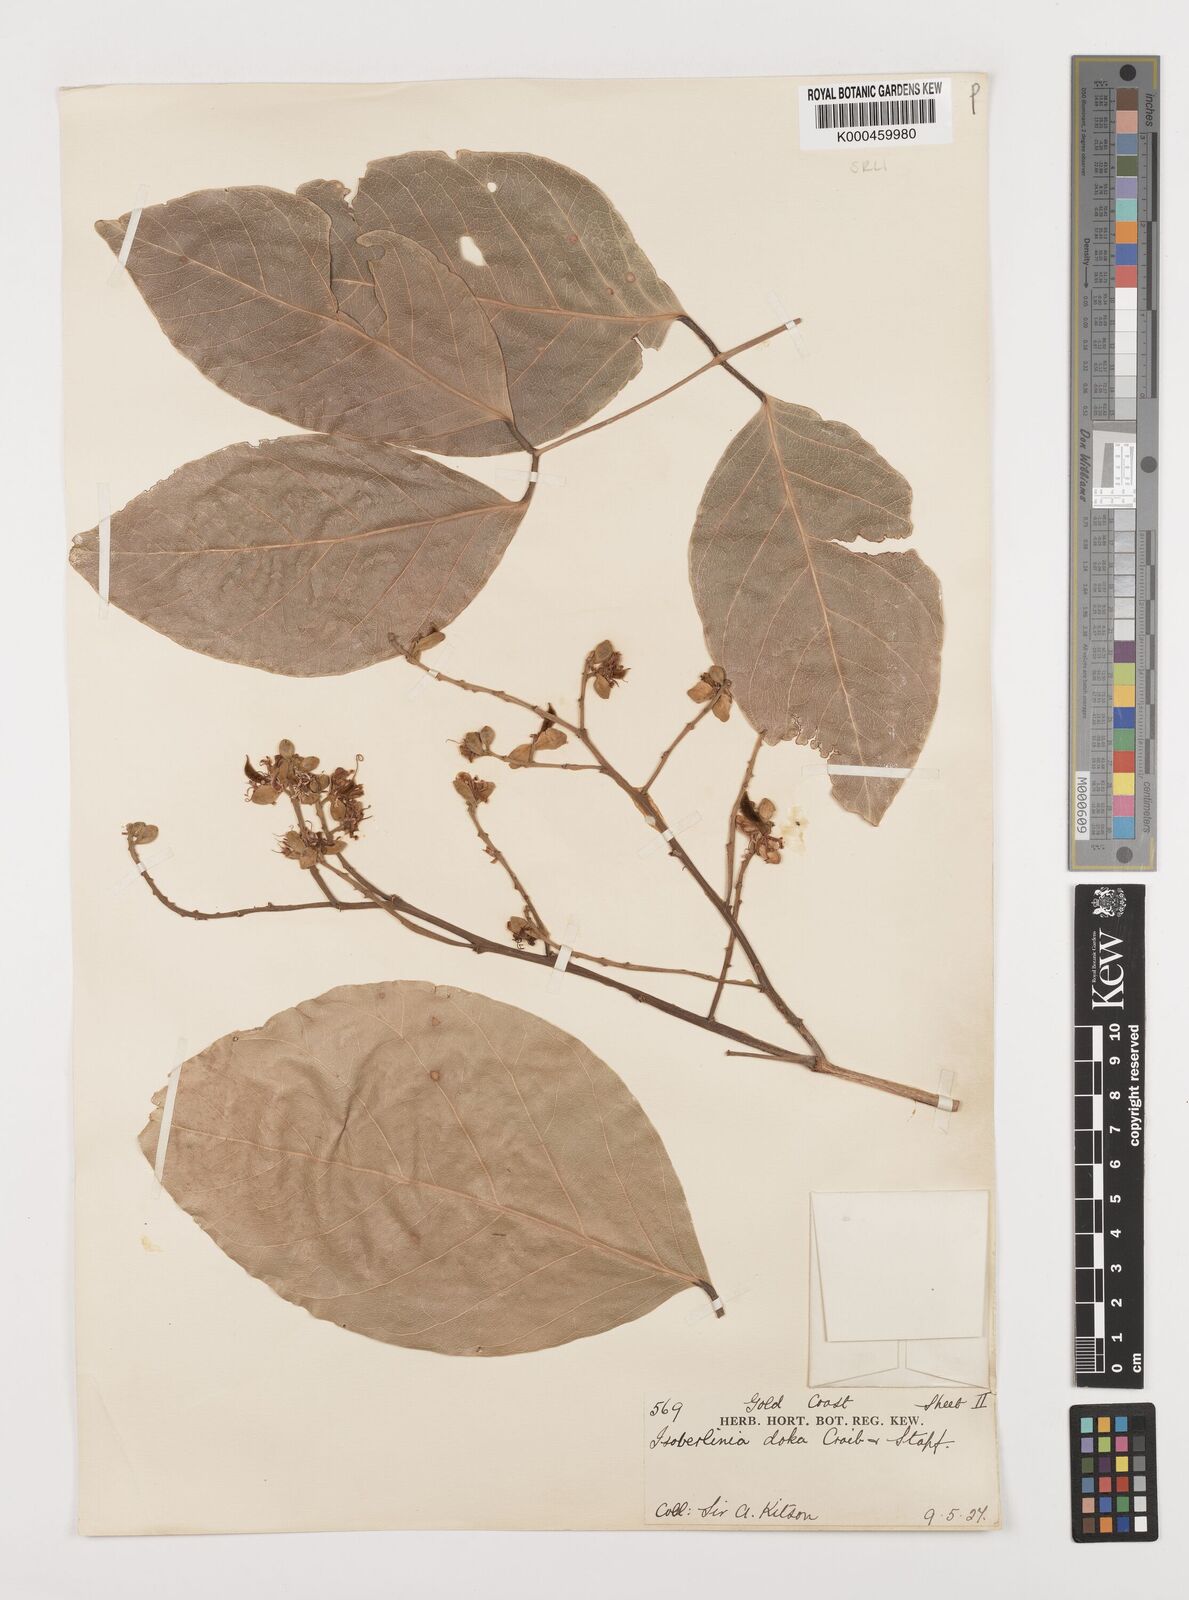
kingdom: Plantae
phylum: Tracheophyta
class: Magnoliopsida
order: Fabales
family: Fabaceae
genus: Isoberlinia
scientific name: Isoberlinia doka
